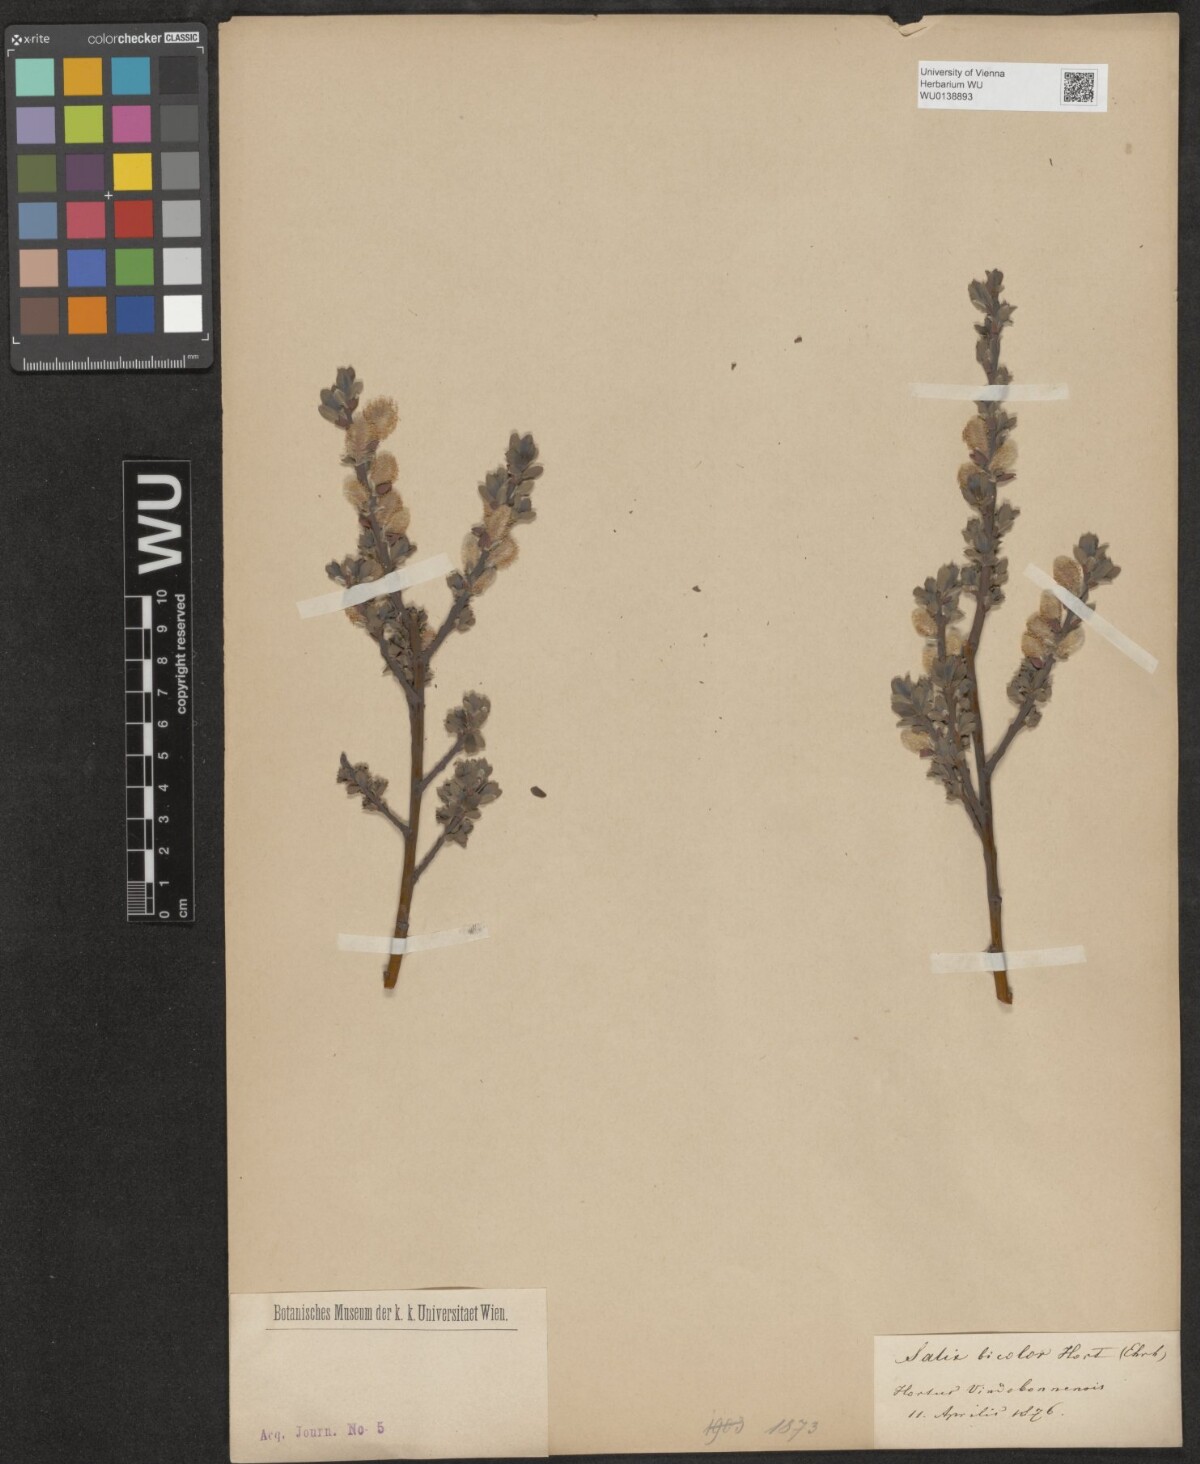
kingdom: Plantae
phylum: Tracheophyta
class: Magnoliopsida
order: Malpighiales
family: Salicaceae
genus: Salix
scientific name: Salix phylicifolia
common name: Tea-leaved willow
